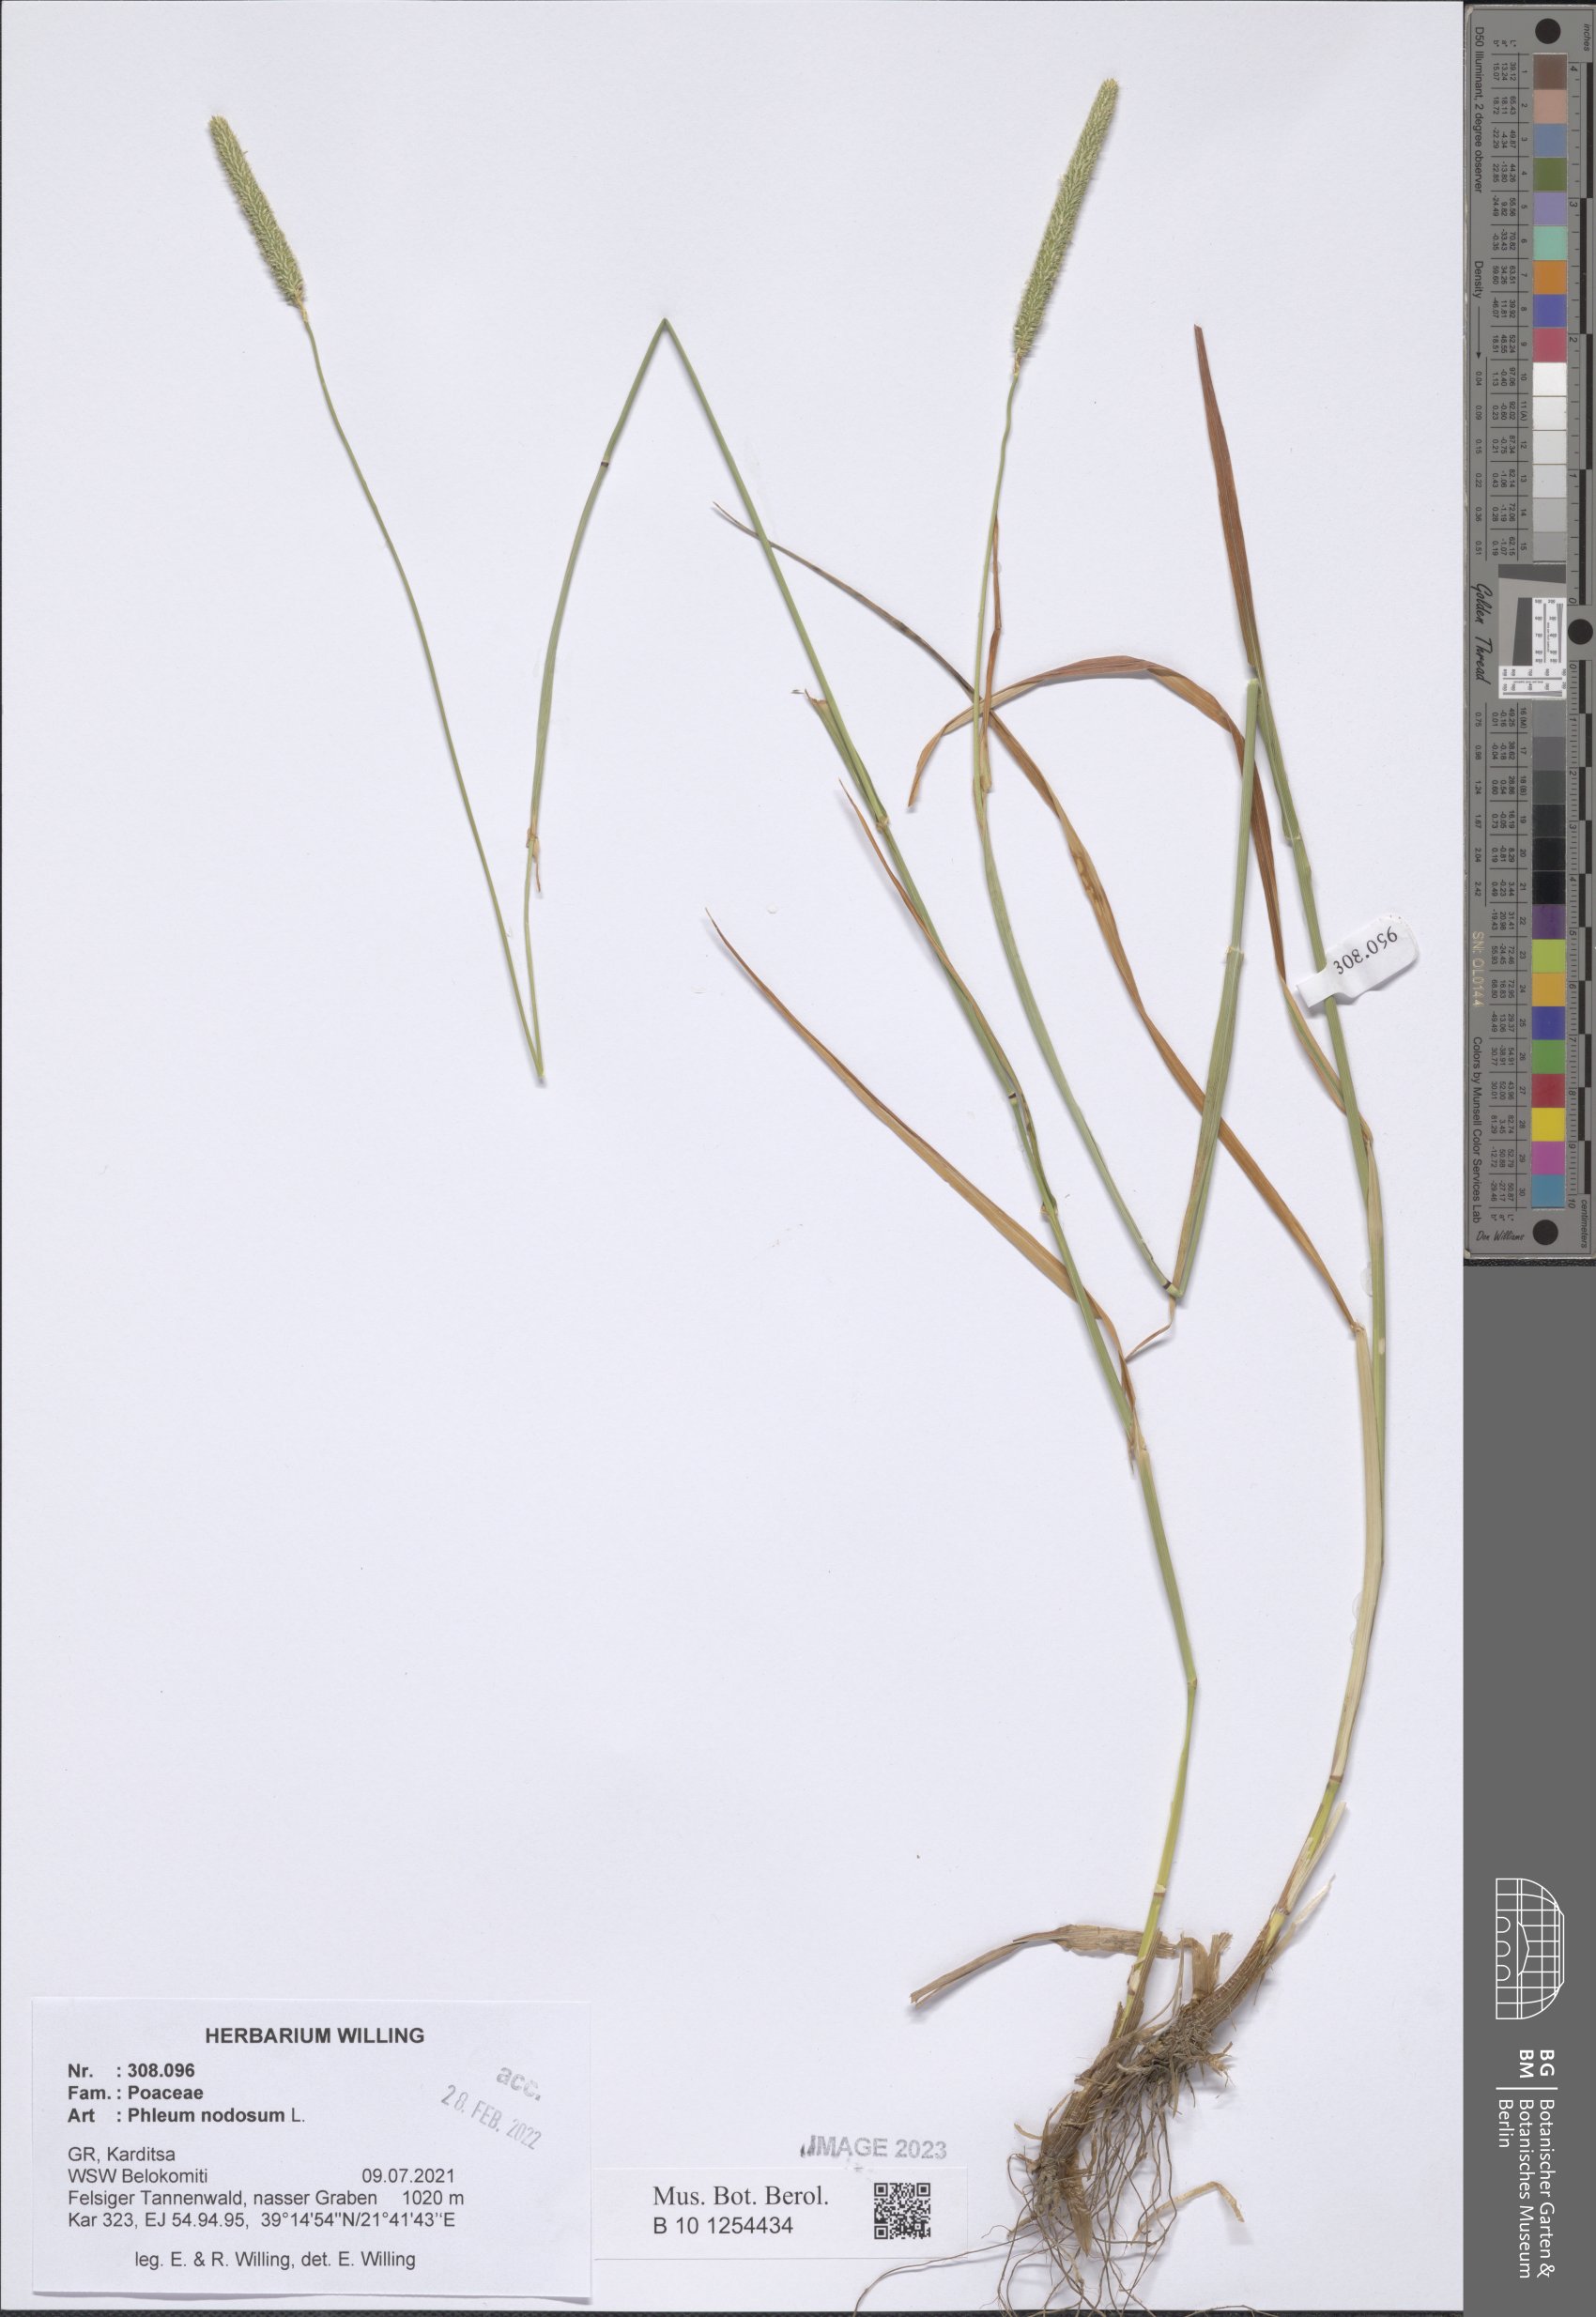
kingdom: Plantae
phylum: Tracheophyta
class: Liliopsida
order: Poales
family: Poaceae
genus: Phleum
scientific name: Phleum pratense
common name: Timothy grass
